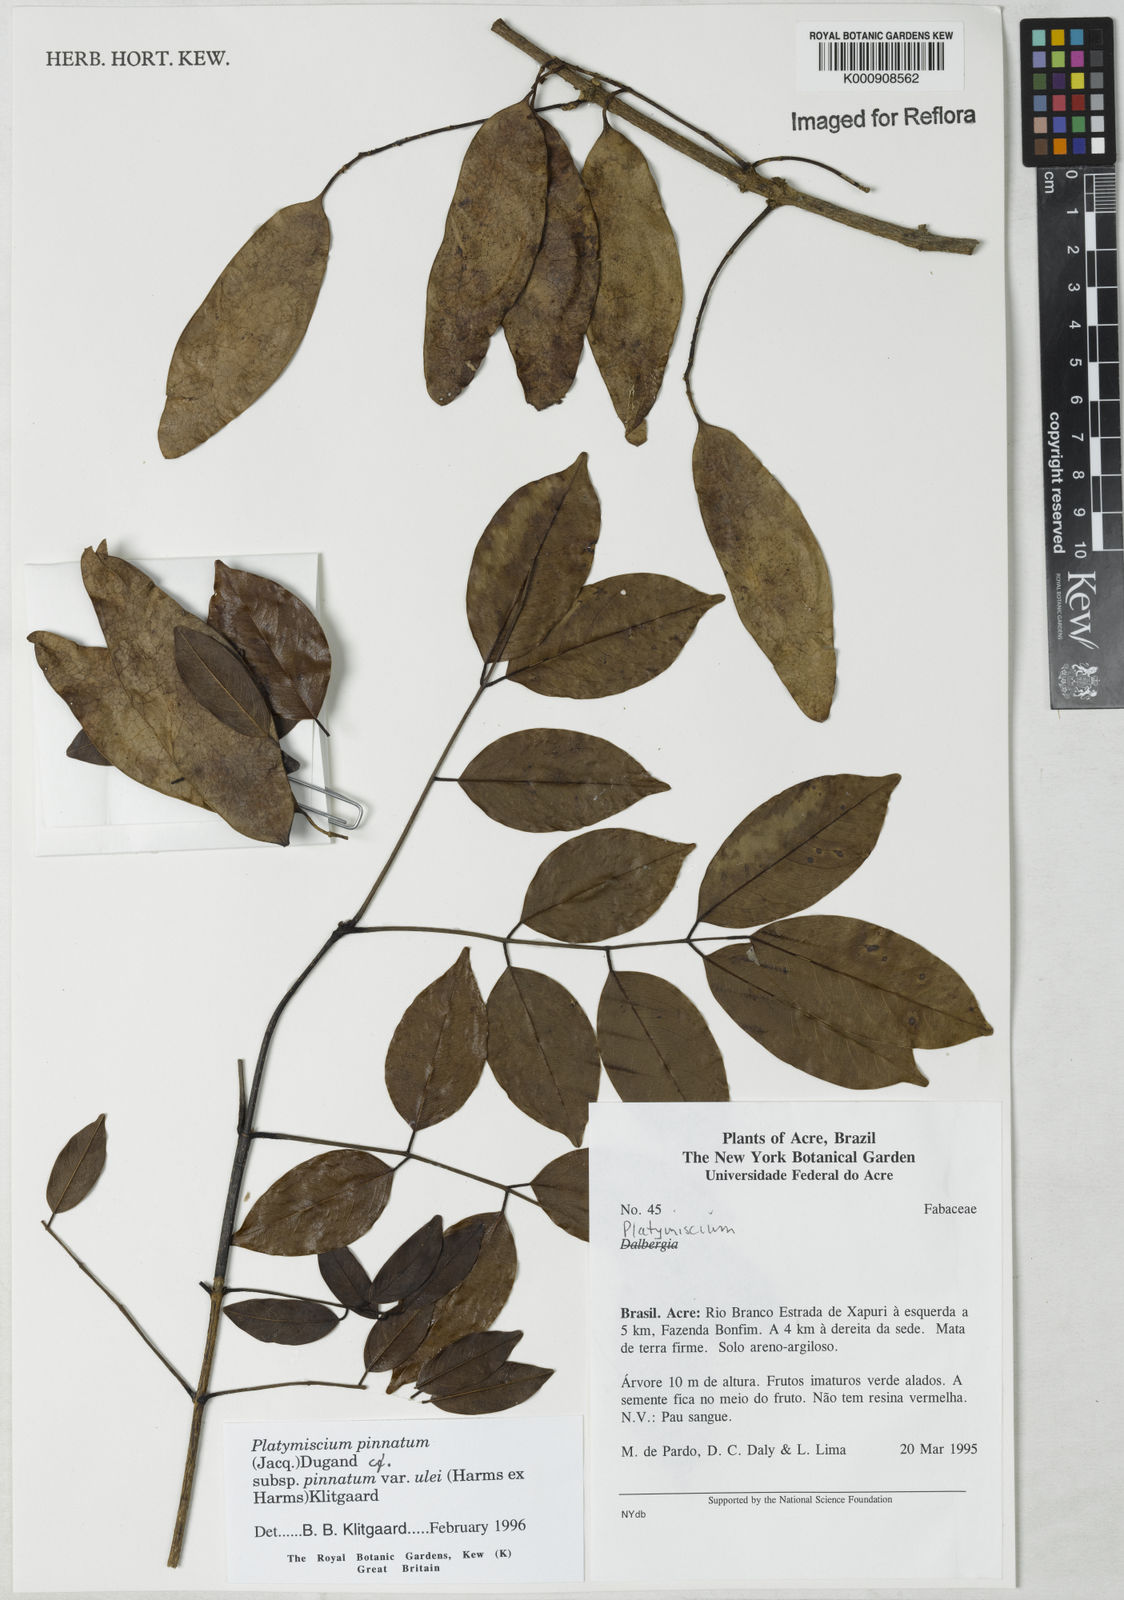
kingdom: Plantae
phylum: Tracheophyta
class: Magnoliopsida
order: Fabales
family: Fabaceae
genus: Platymiscium
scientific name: Platymiscium pinnatum
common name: Panama redwood
